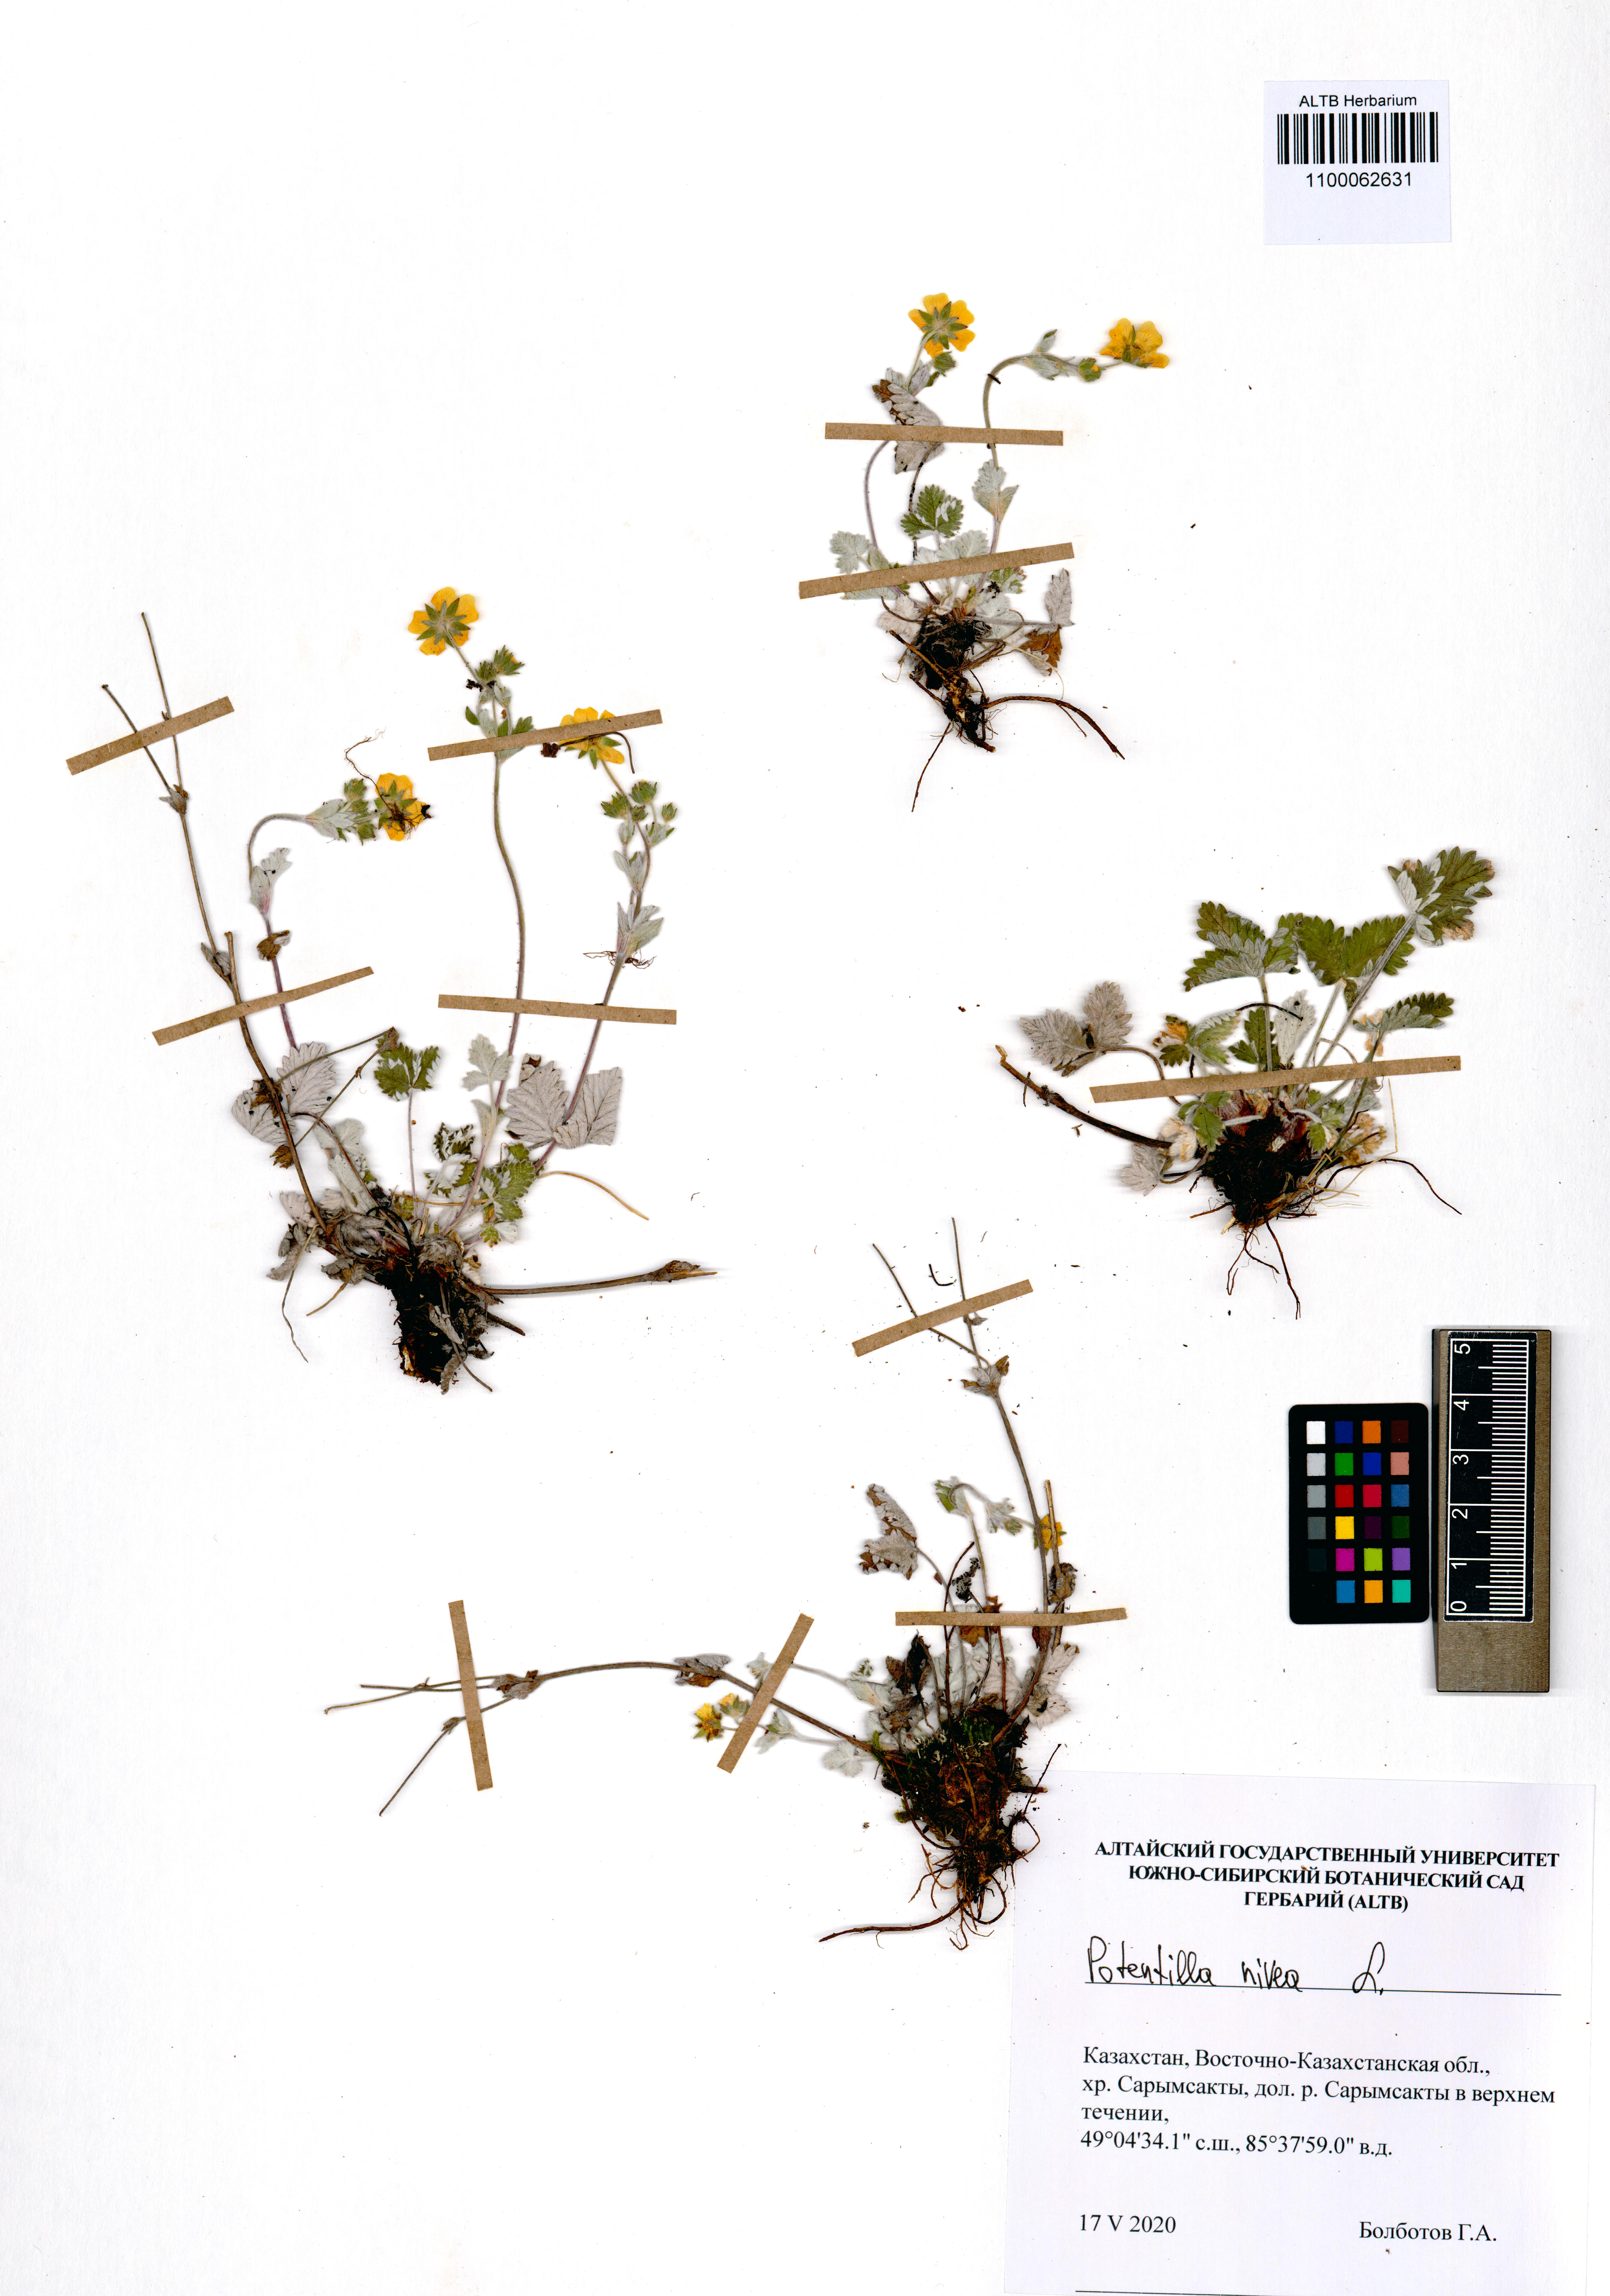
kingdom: Plantae
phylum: Tracheophyta
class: Magnoliopsida
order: Rosales
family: Rosaceae
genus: Potentilla
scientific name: Potentilla nivea
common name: Snow cinquefoil
